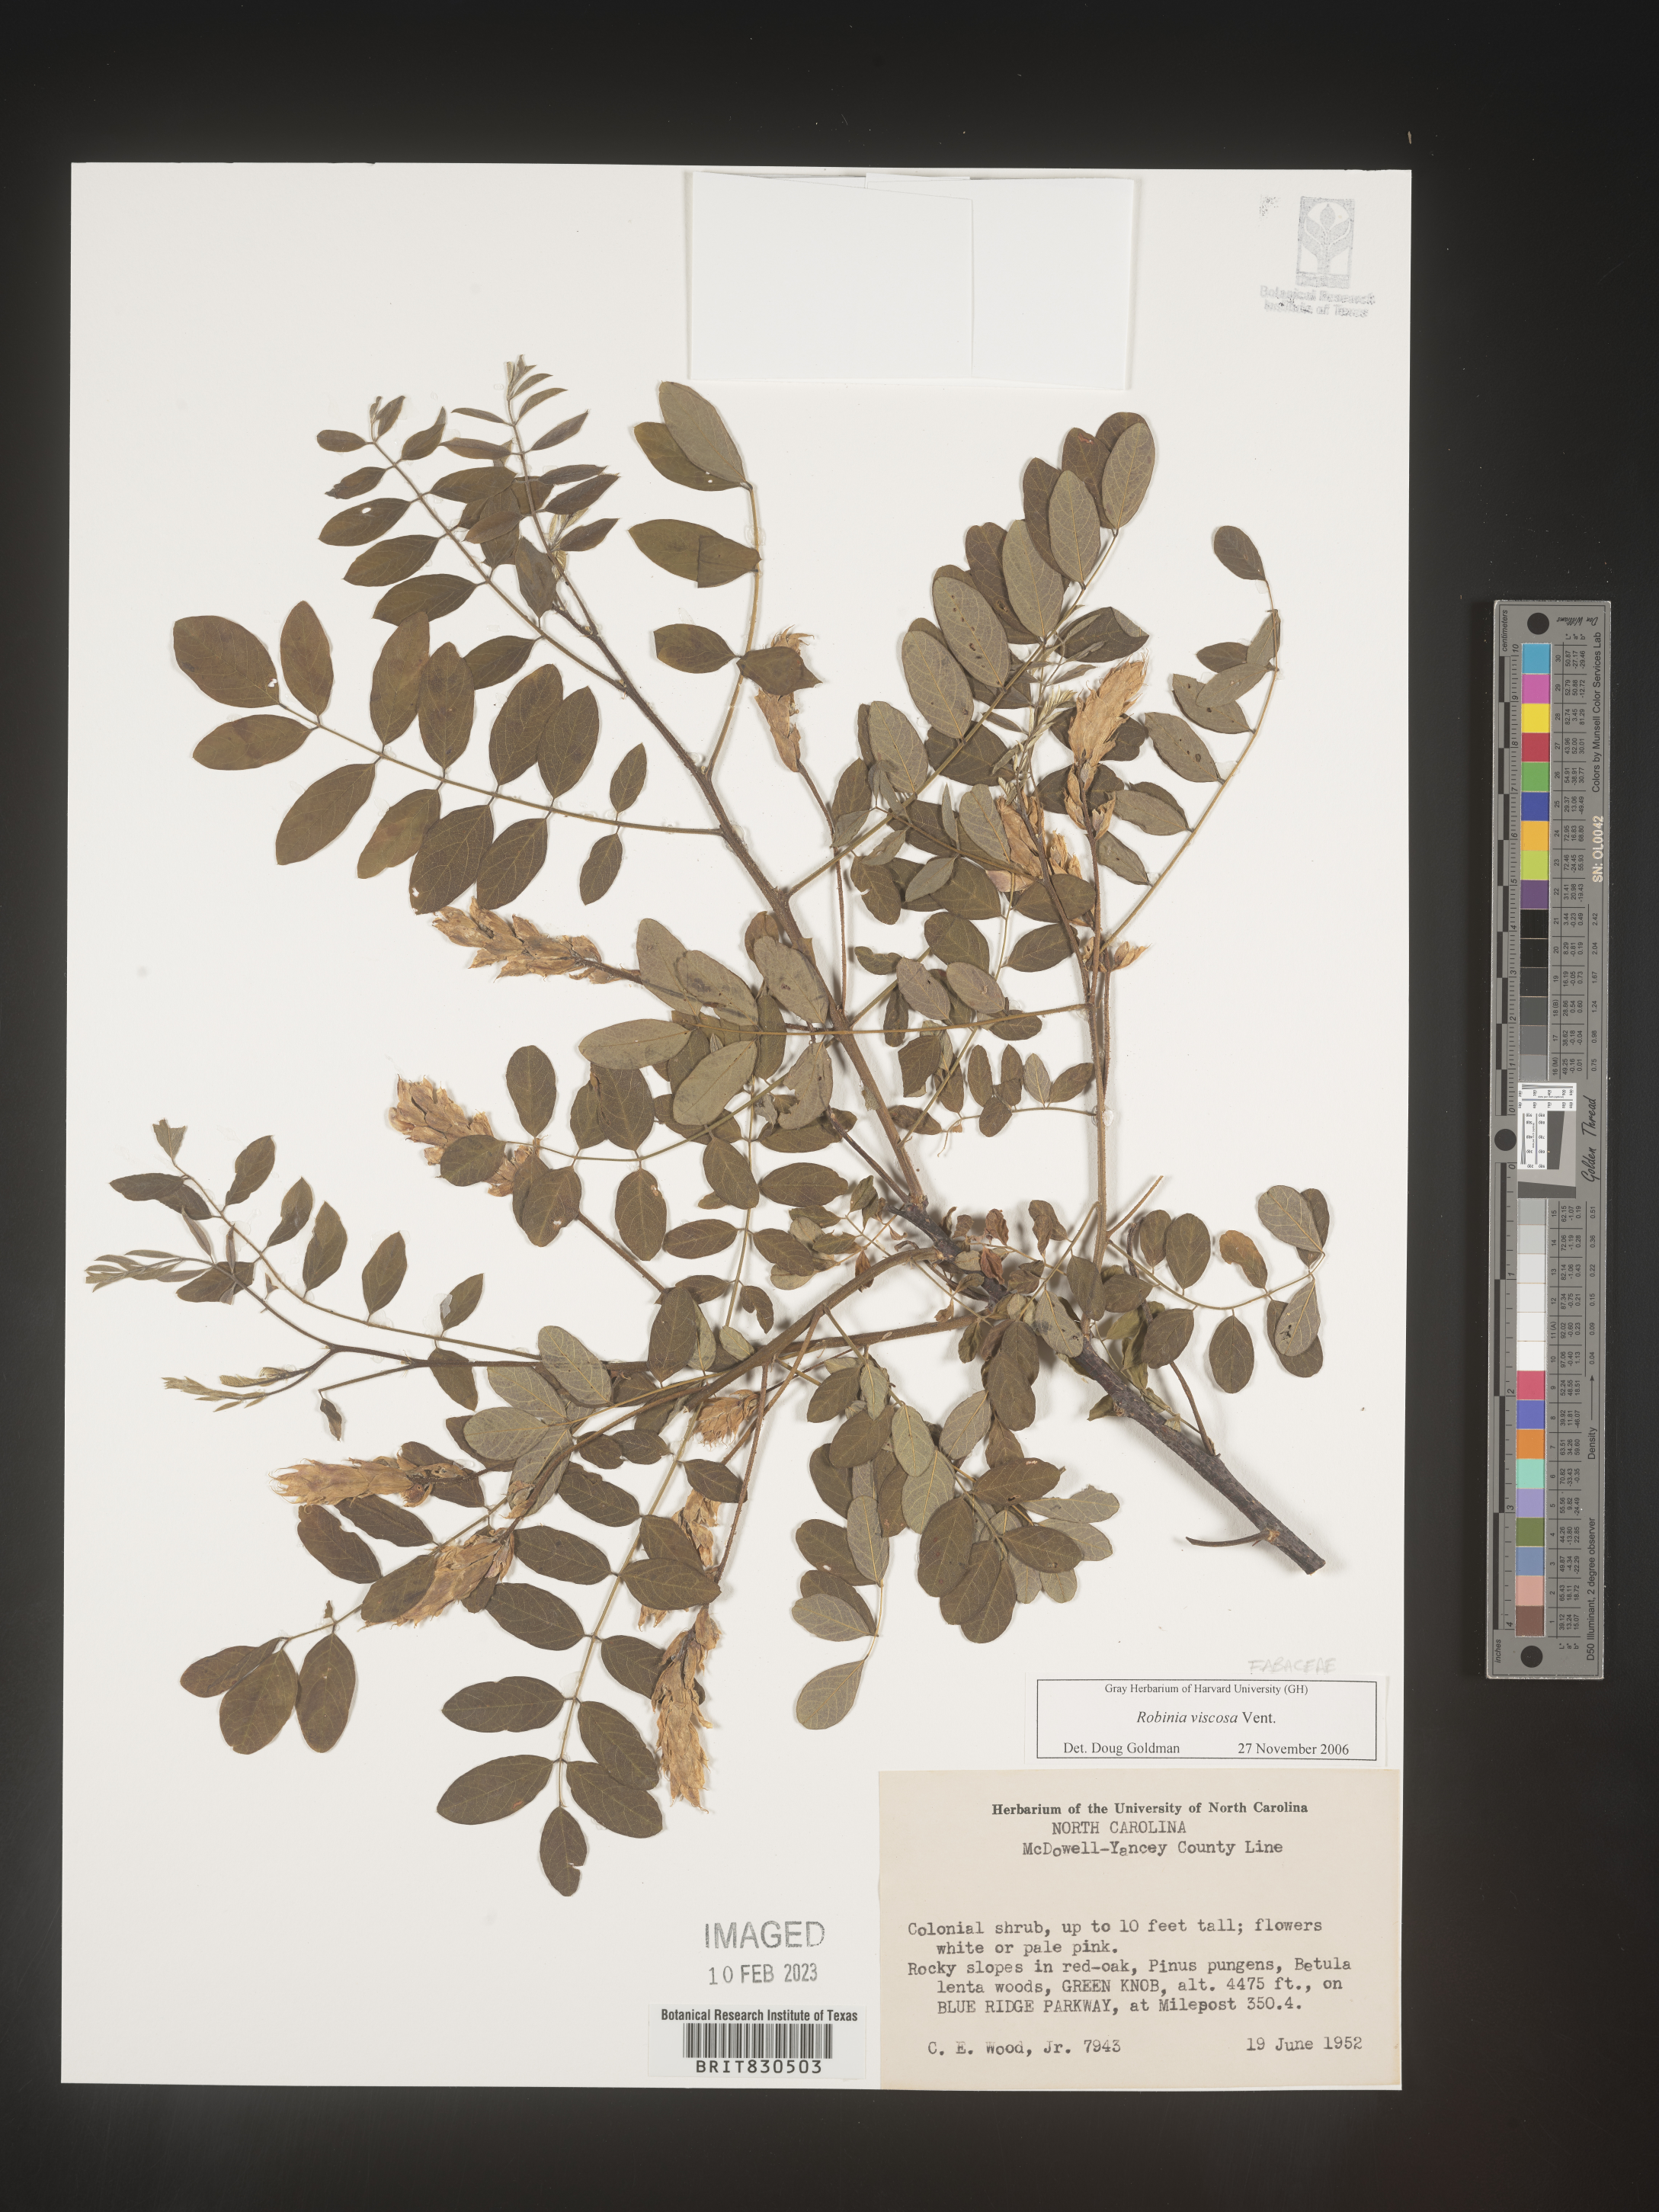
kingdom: Plantae
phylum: Tracheophyta
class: Magnoliopsida
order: Fabales
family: Fabaceae
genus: Robinia
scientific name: Robinia
